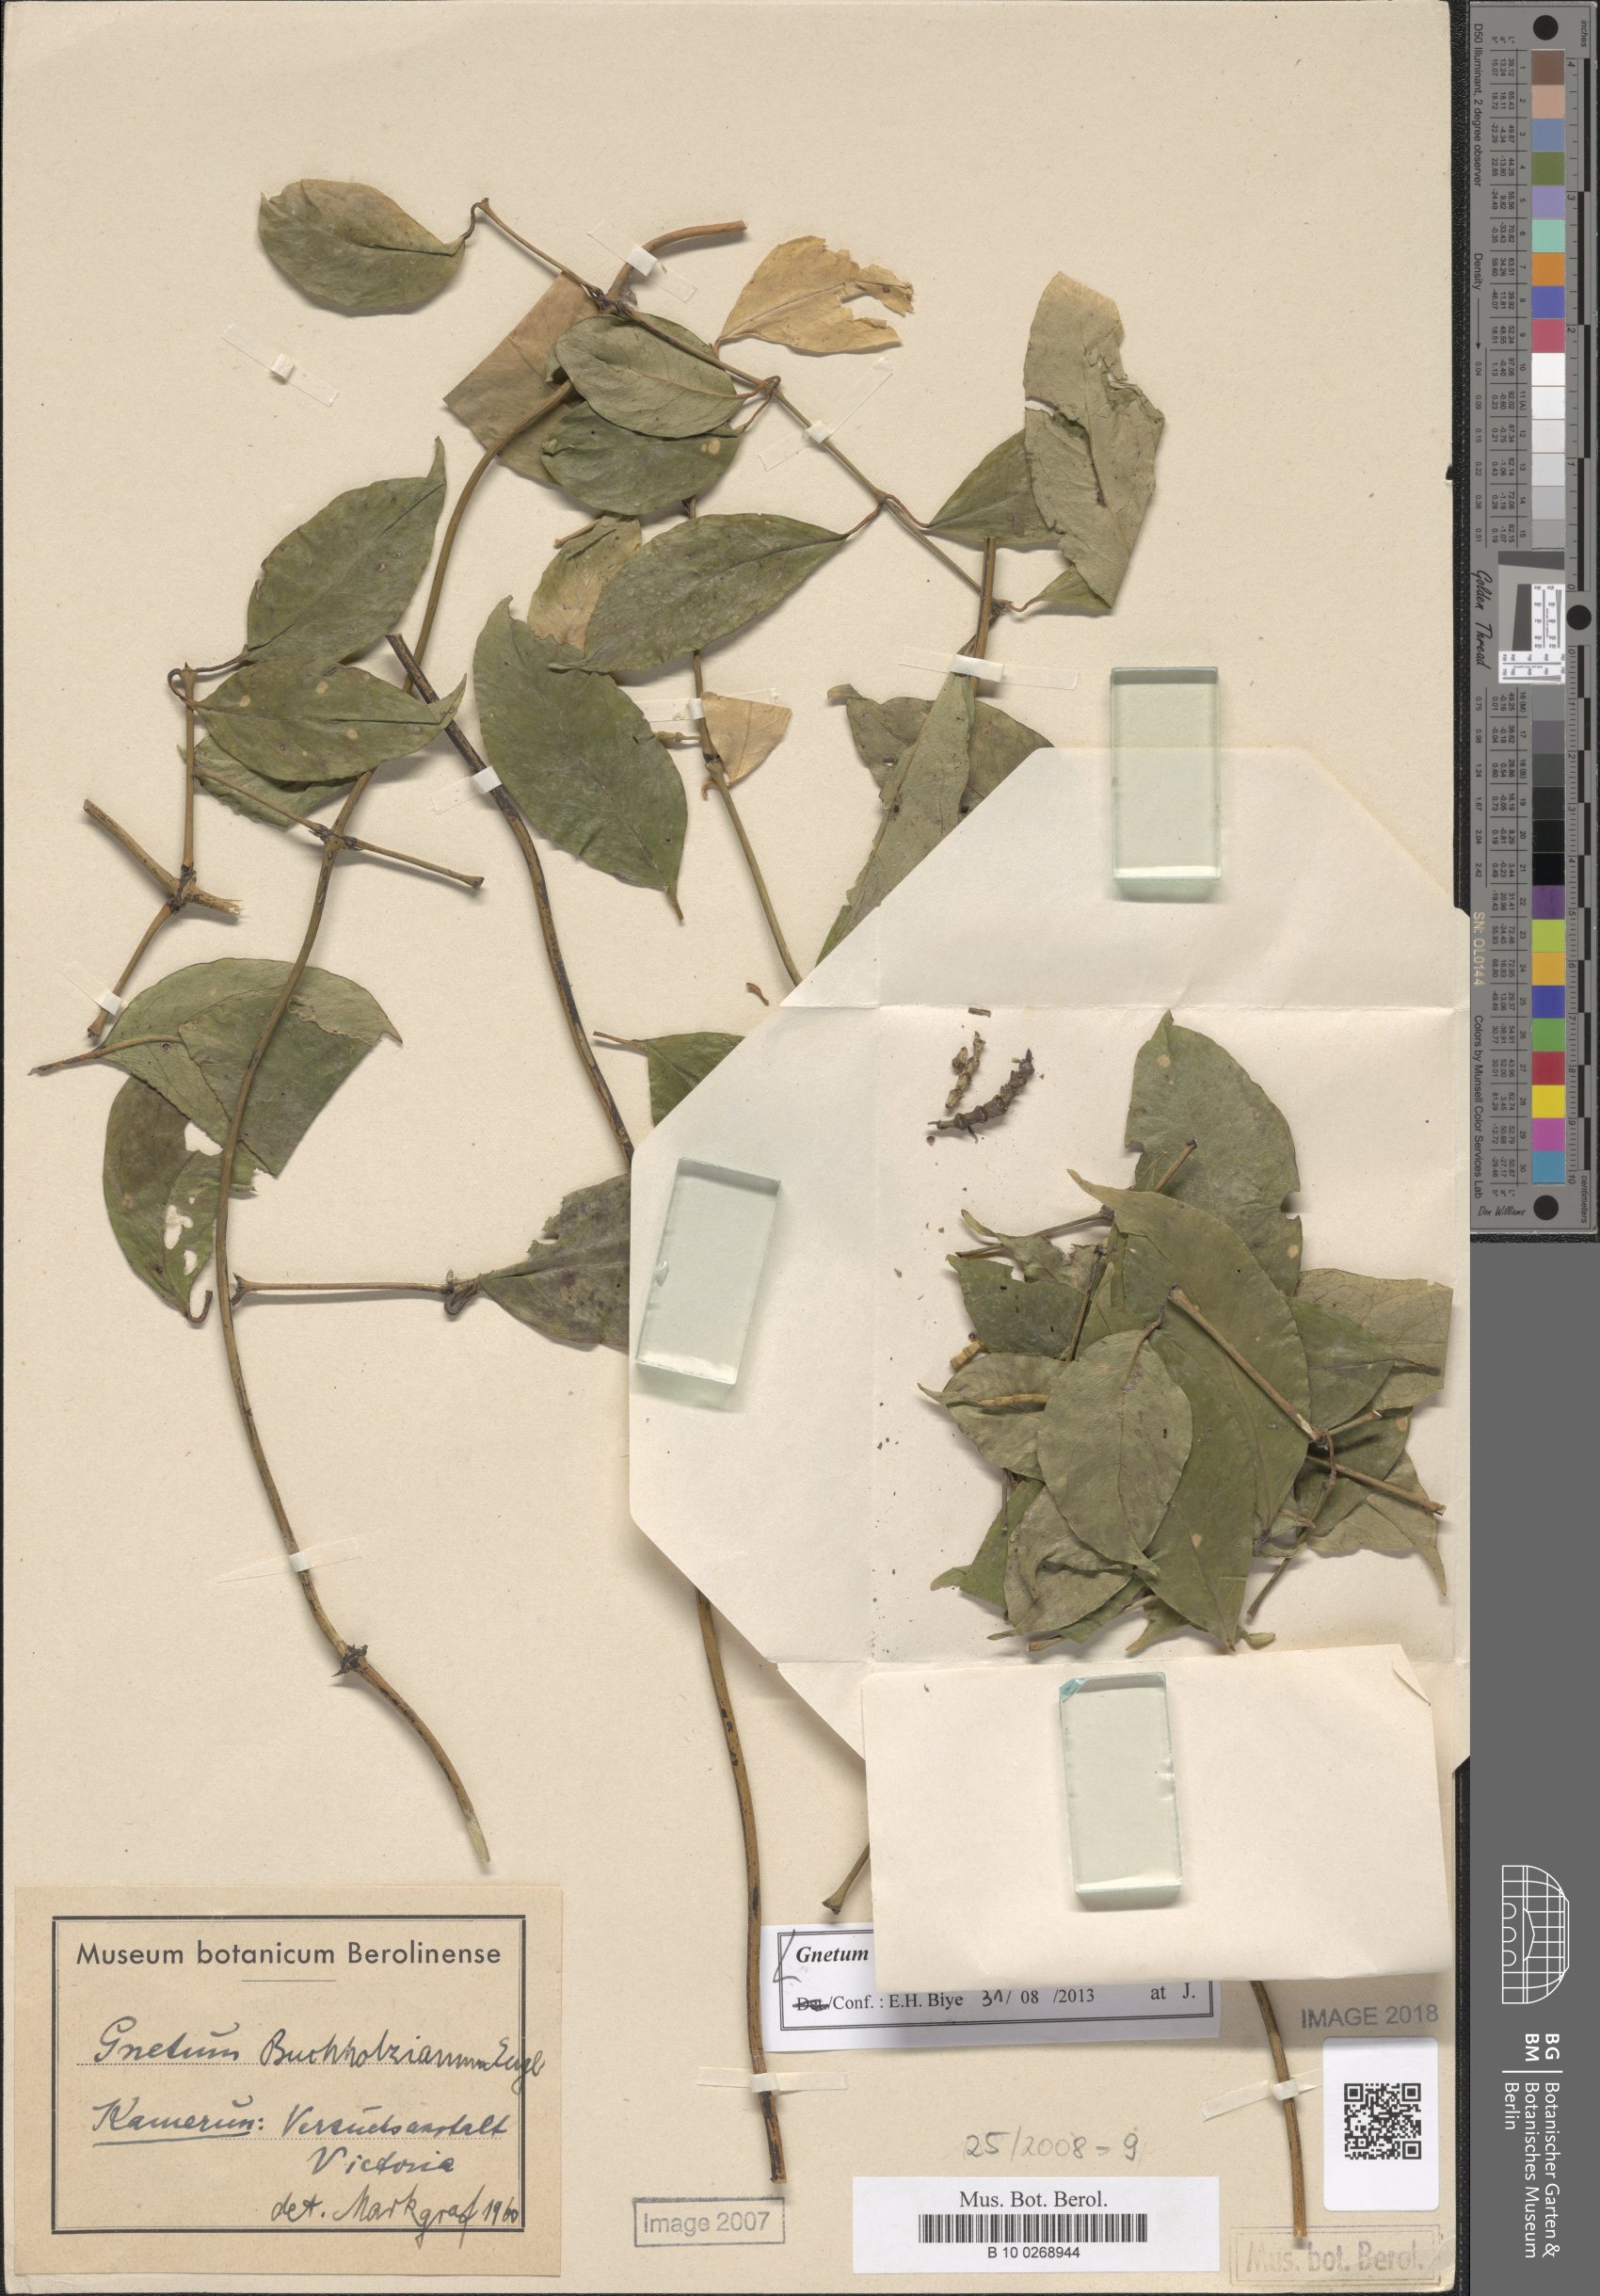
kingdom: Plantae
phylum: Tracheophyta
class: Gnetopsida
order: Gnetales
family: Gnetaceae
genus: Gnetum
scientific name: Gnetum buchholzianum
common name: Eru
